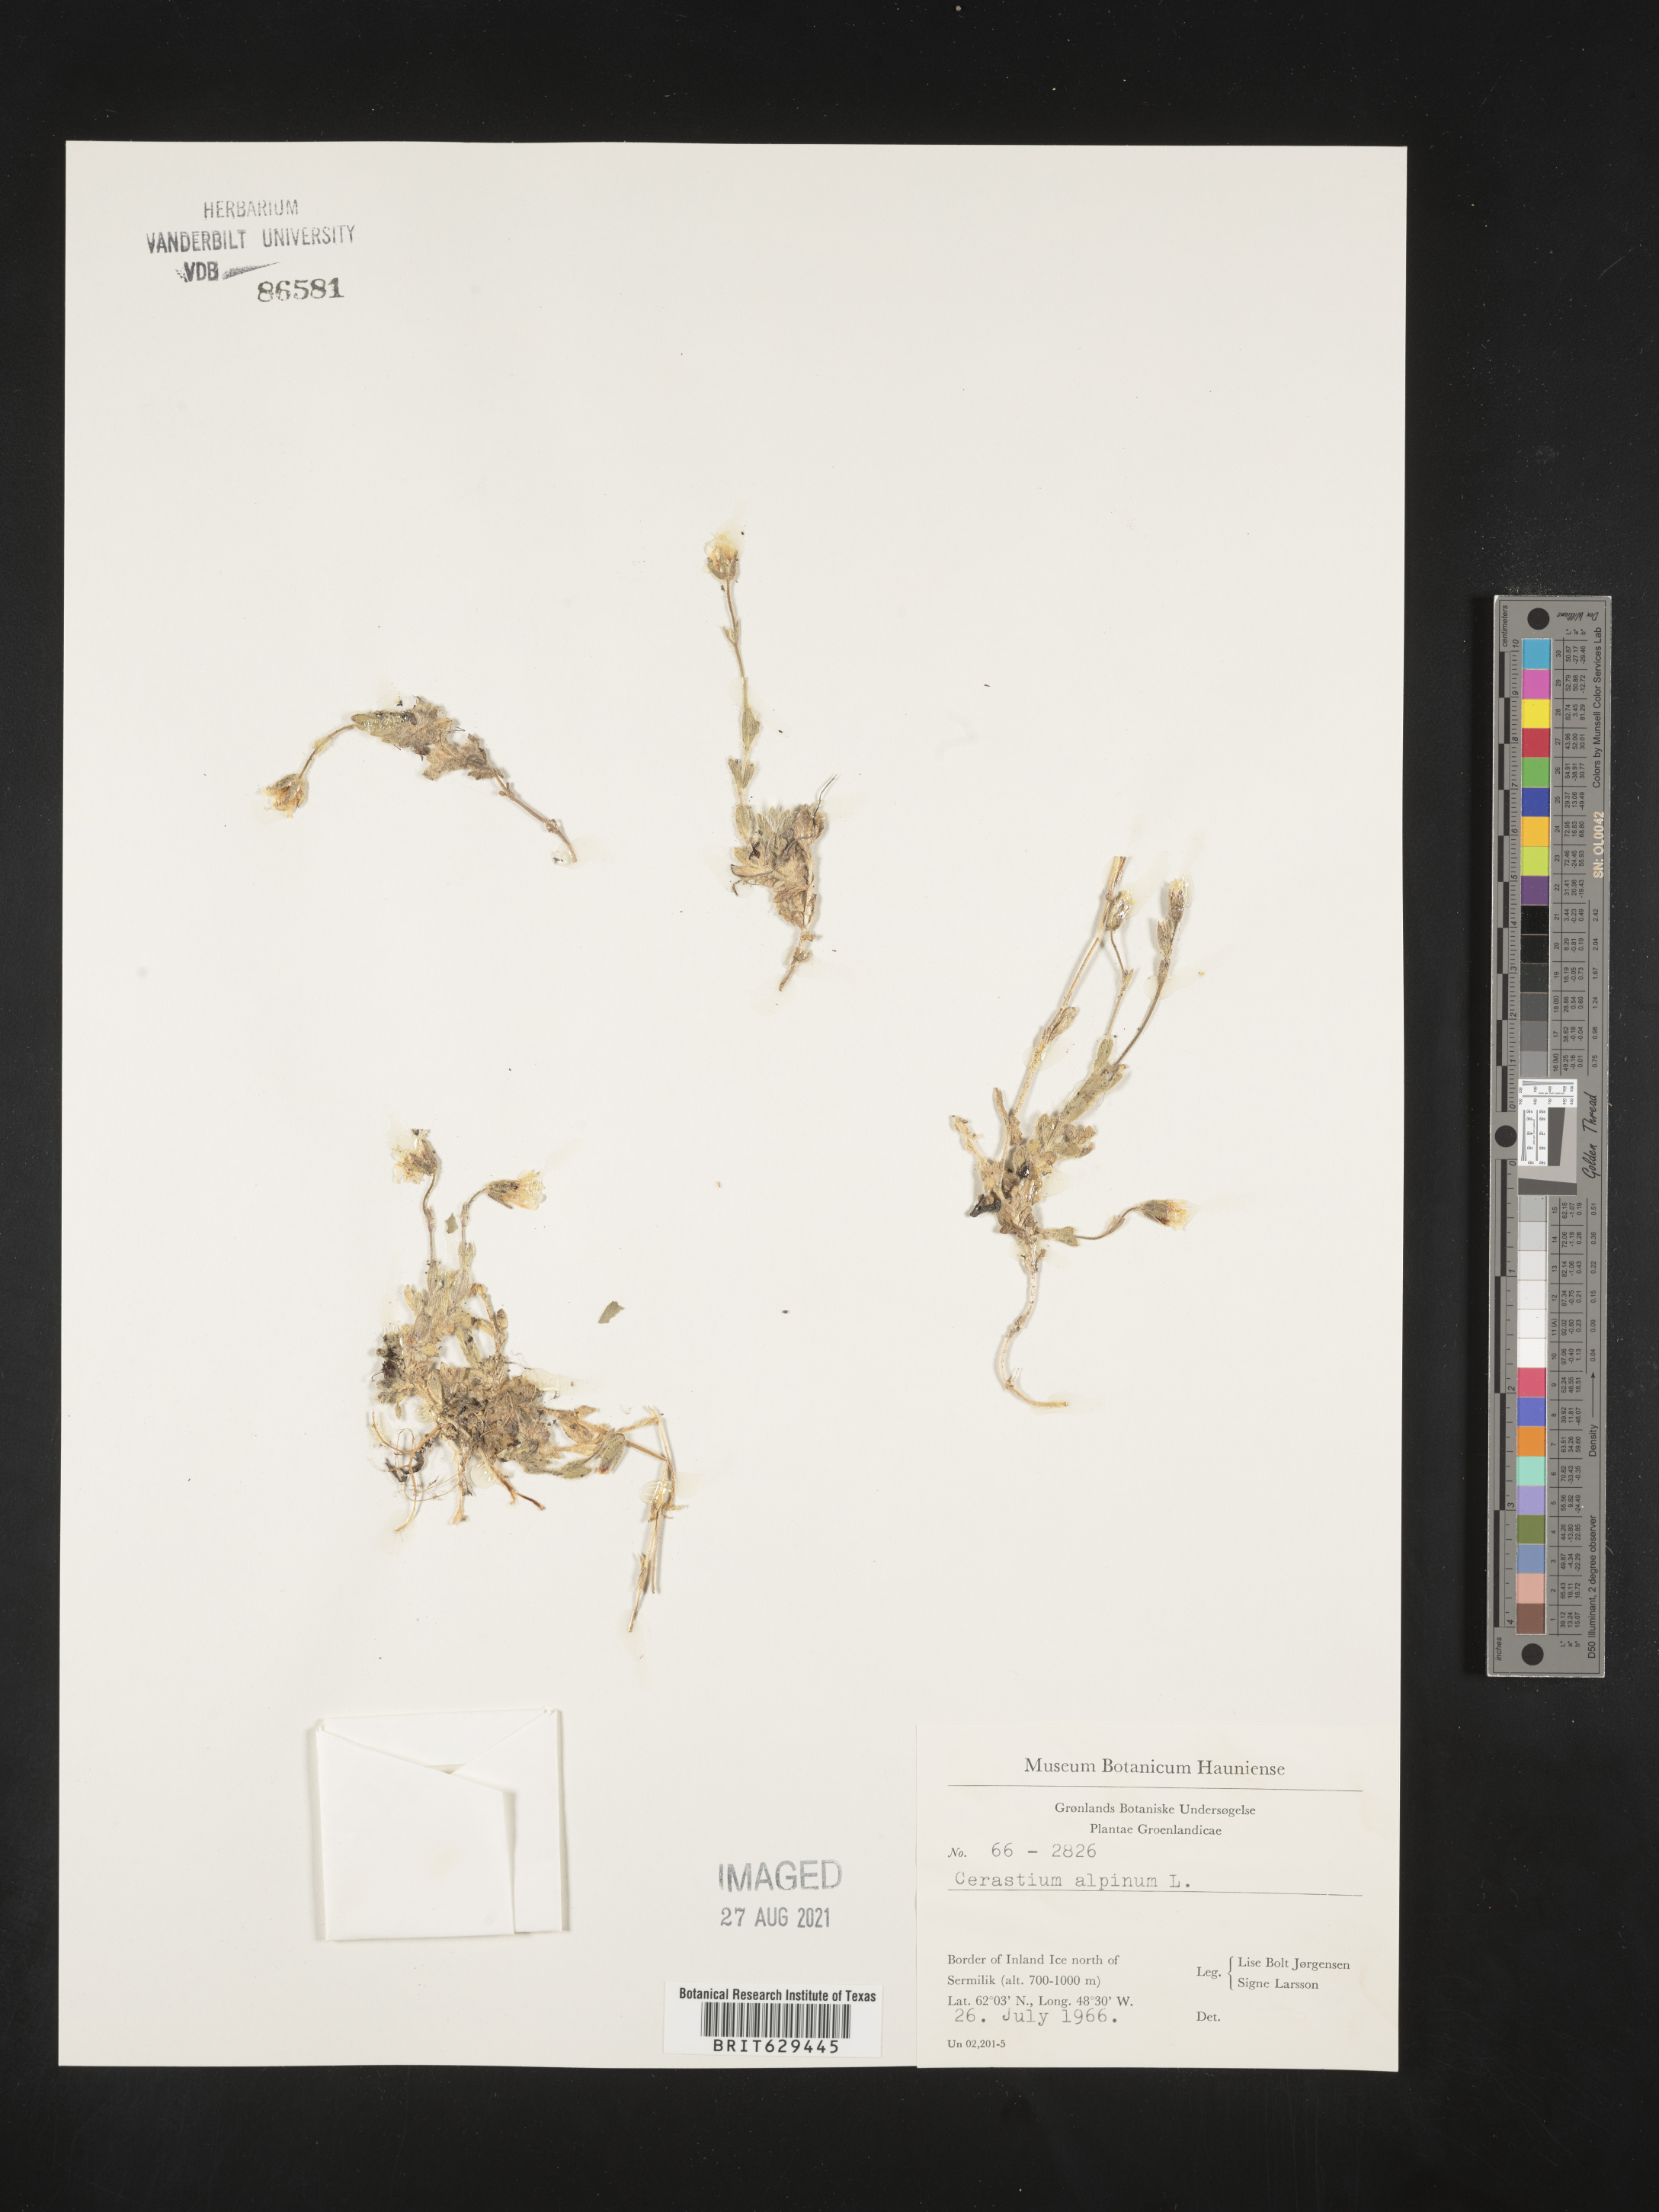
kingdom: Plantae
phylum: Tracheophyta
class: Magnoliopsida
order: Caryophyllales
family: Caryophyllaceae
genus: Cerastium
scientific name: Cerastium alpinum
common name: Alpine mouse-ear
